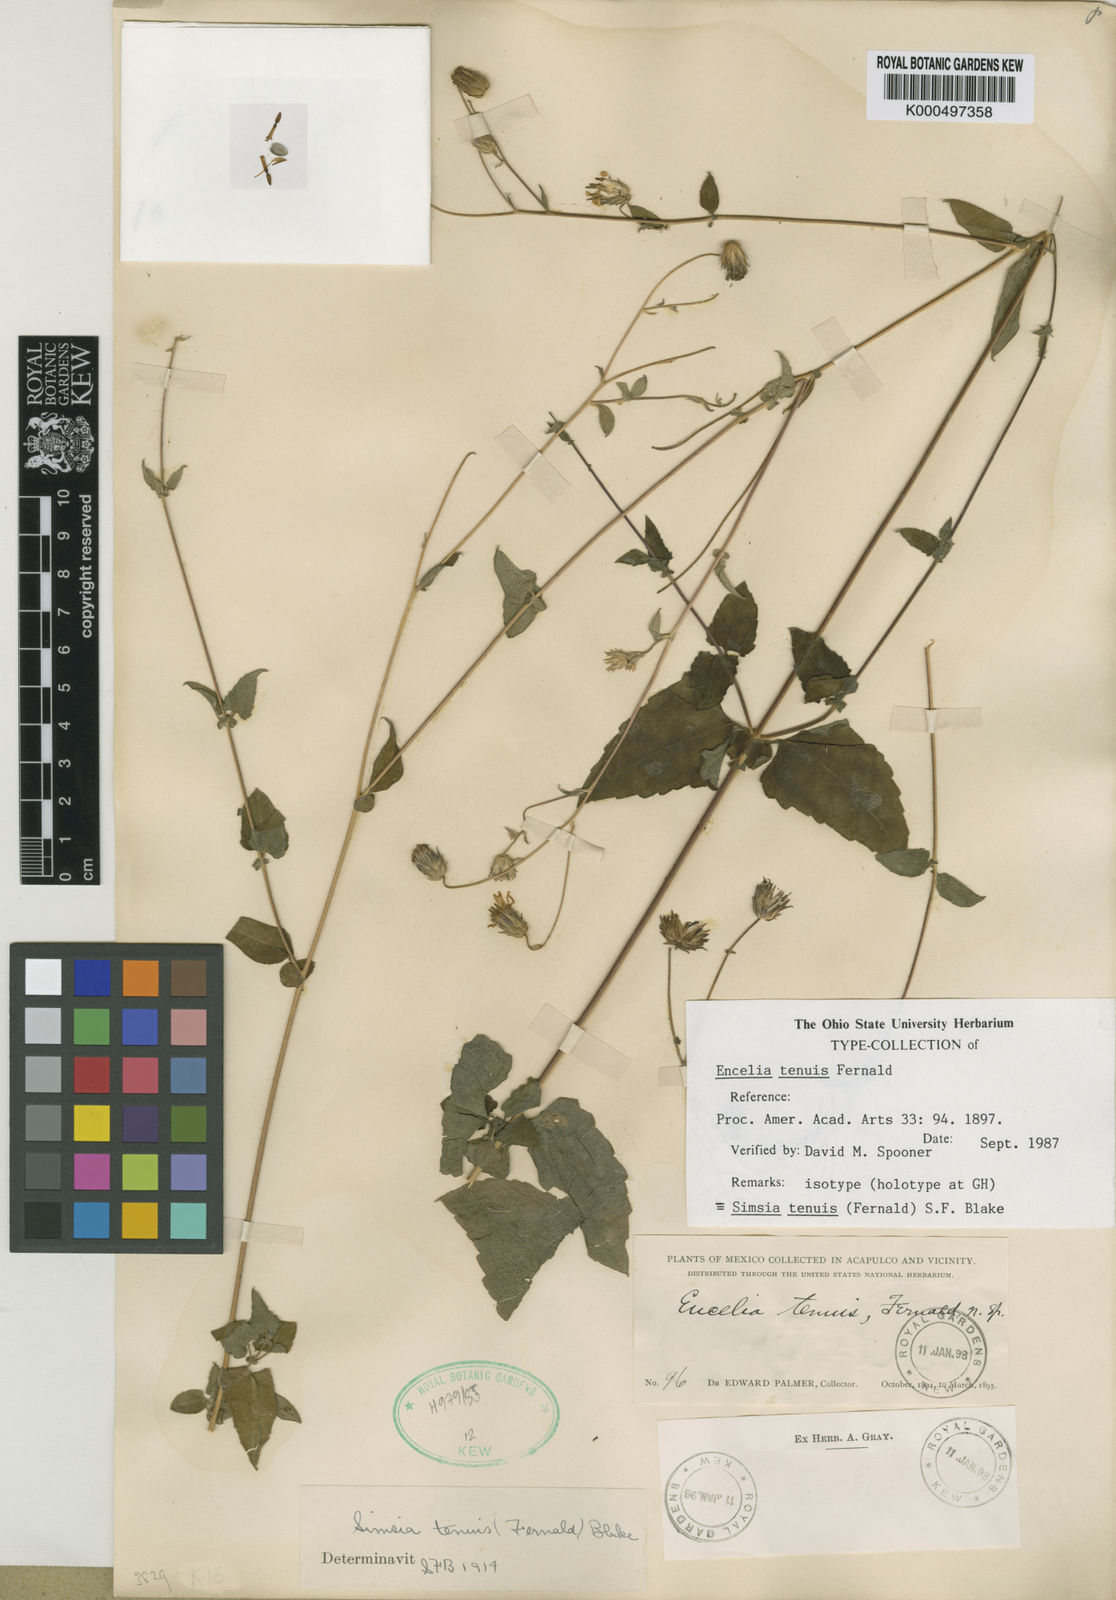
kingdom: Plantae
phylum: Tracheophyta
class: Magnoliopsida
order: Asterales
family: Asteraceae
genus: Simsia
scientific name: Simsia tenuis
